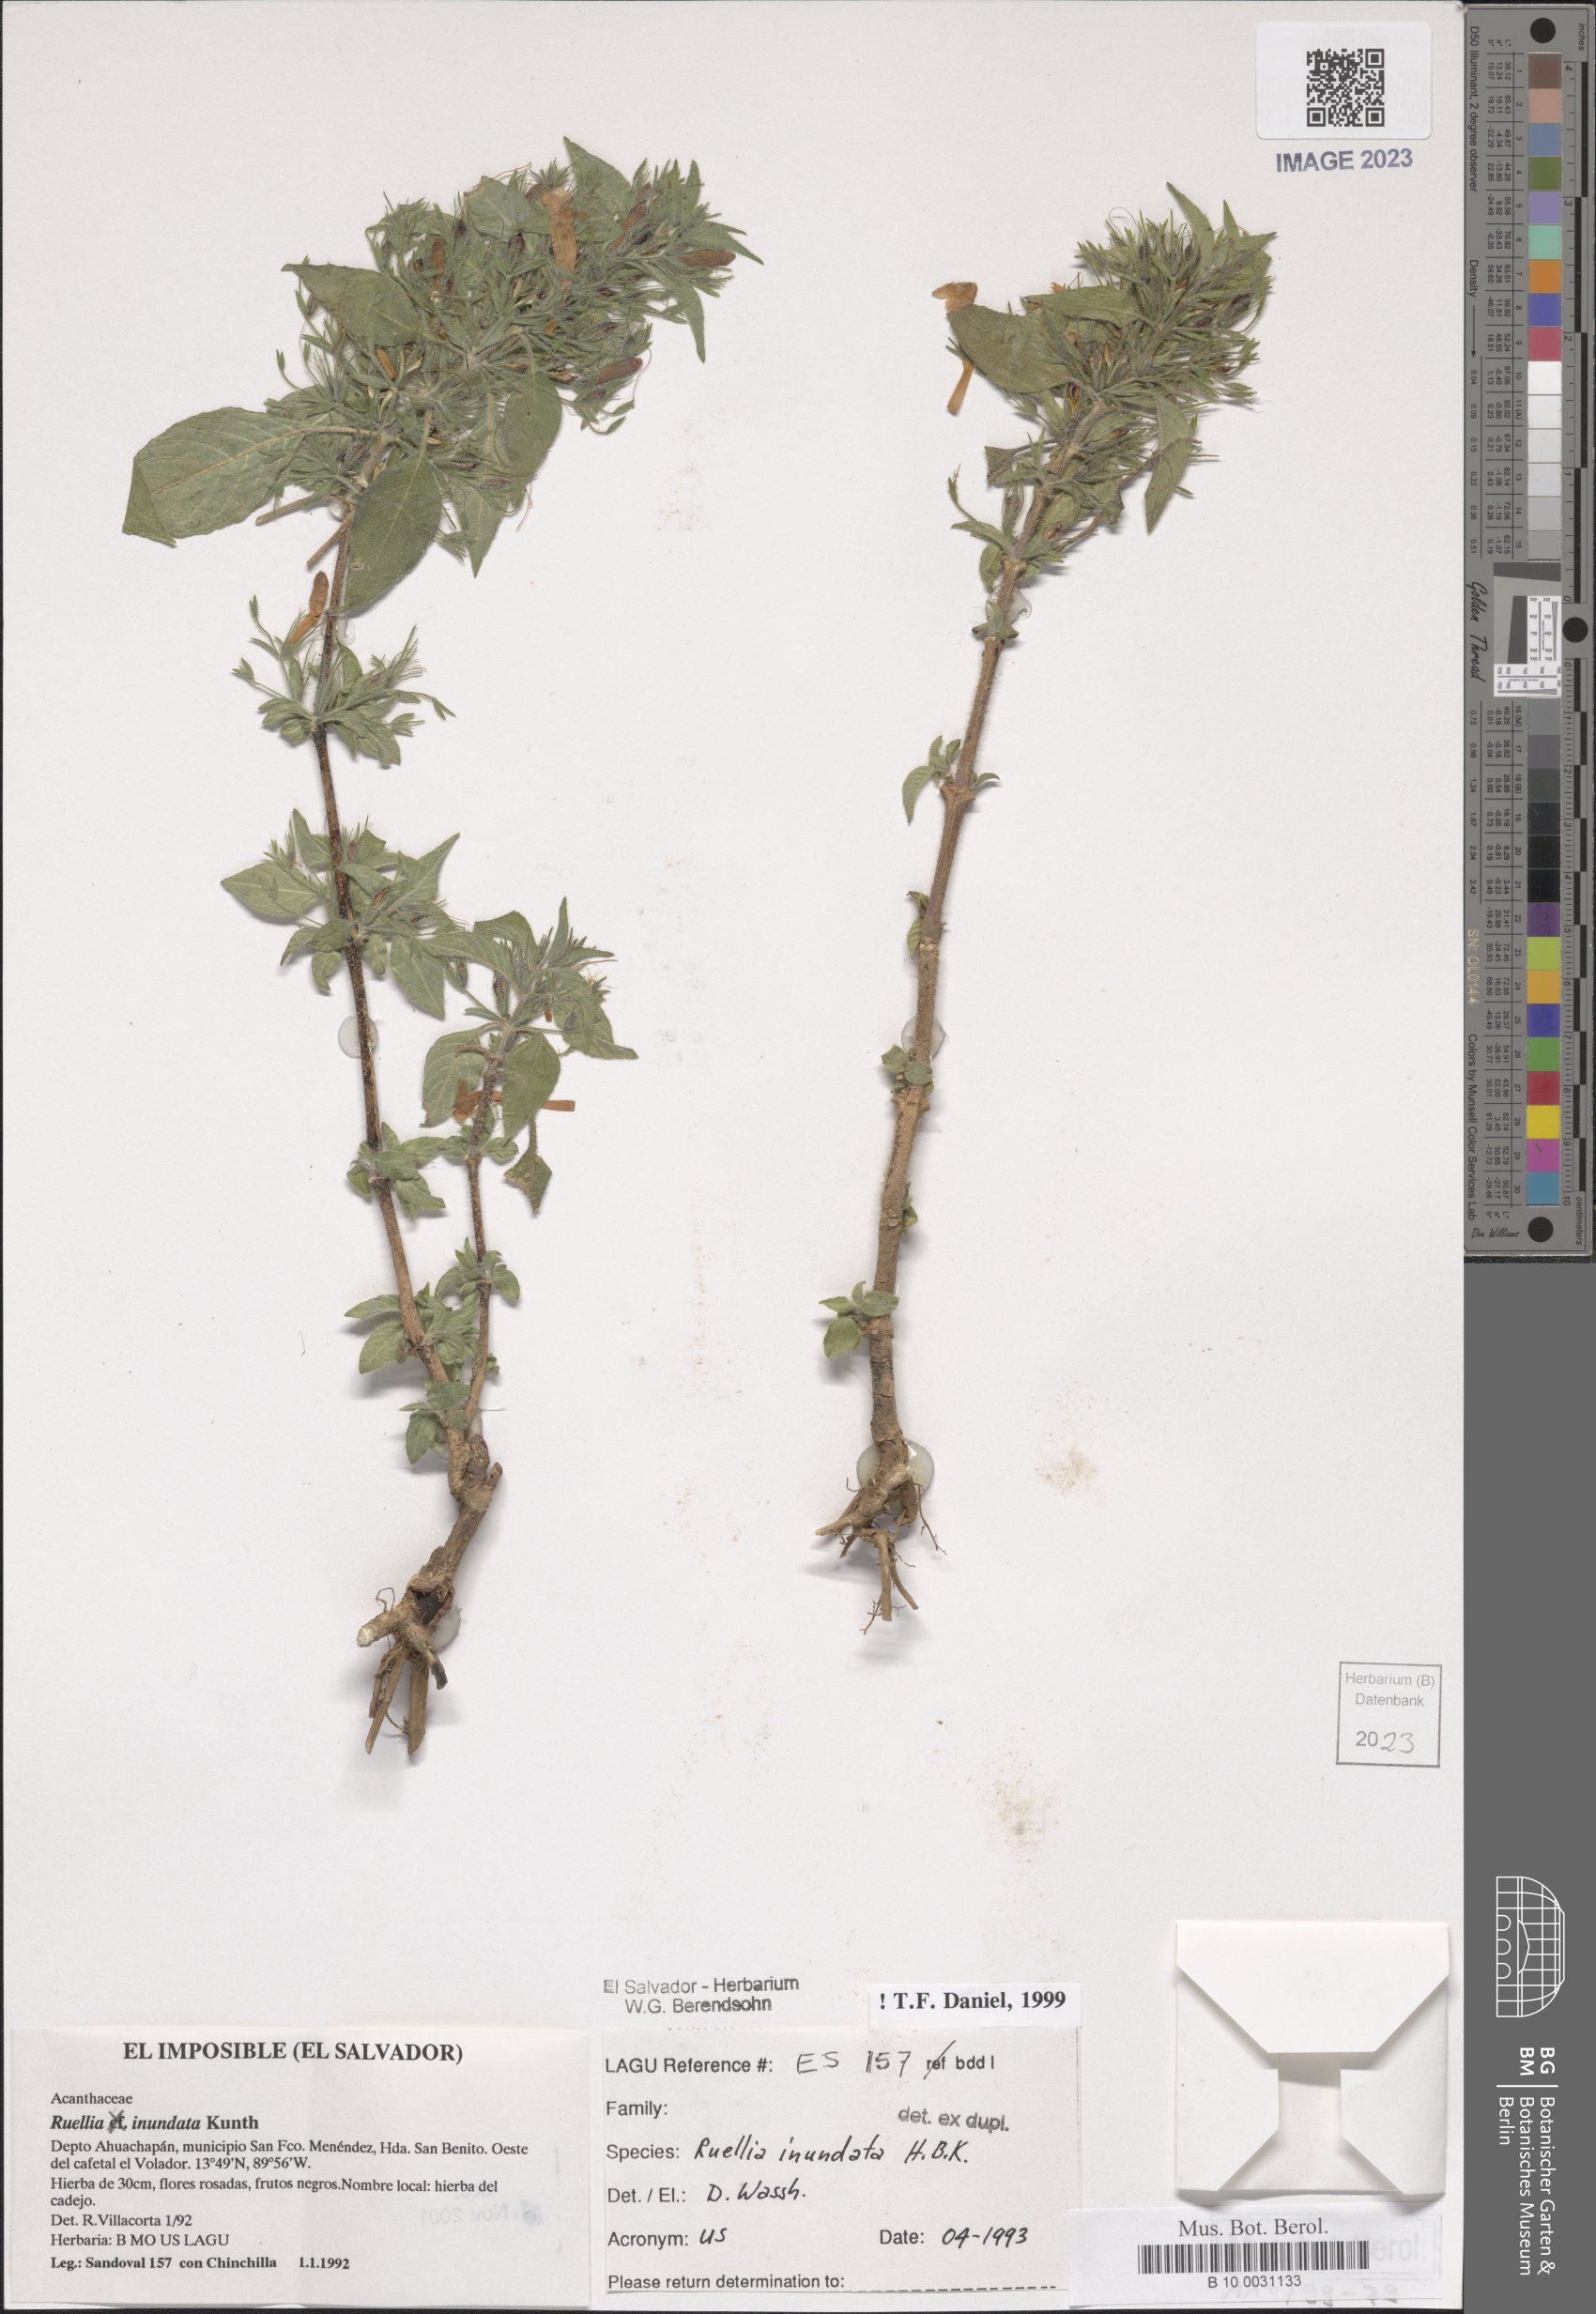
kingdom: Plantae
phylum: Tracheophyta
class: Magnoliopsida
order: Lamiales
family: Acanthaceae
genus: Ruellia
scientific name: Ruellia inundata
